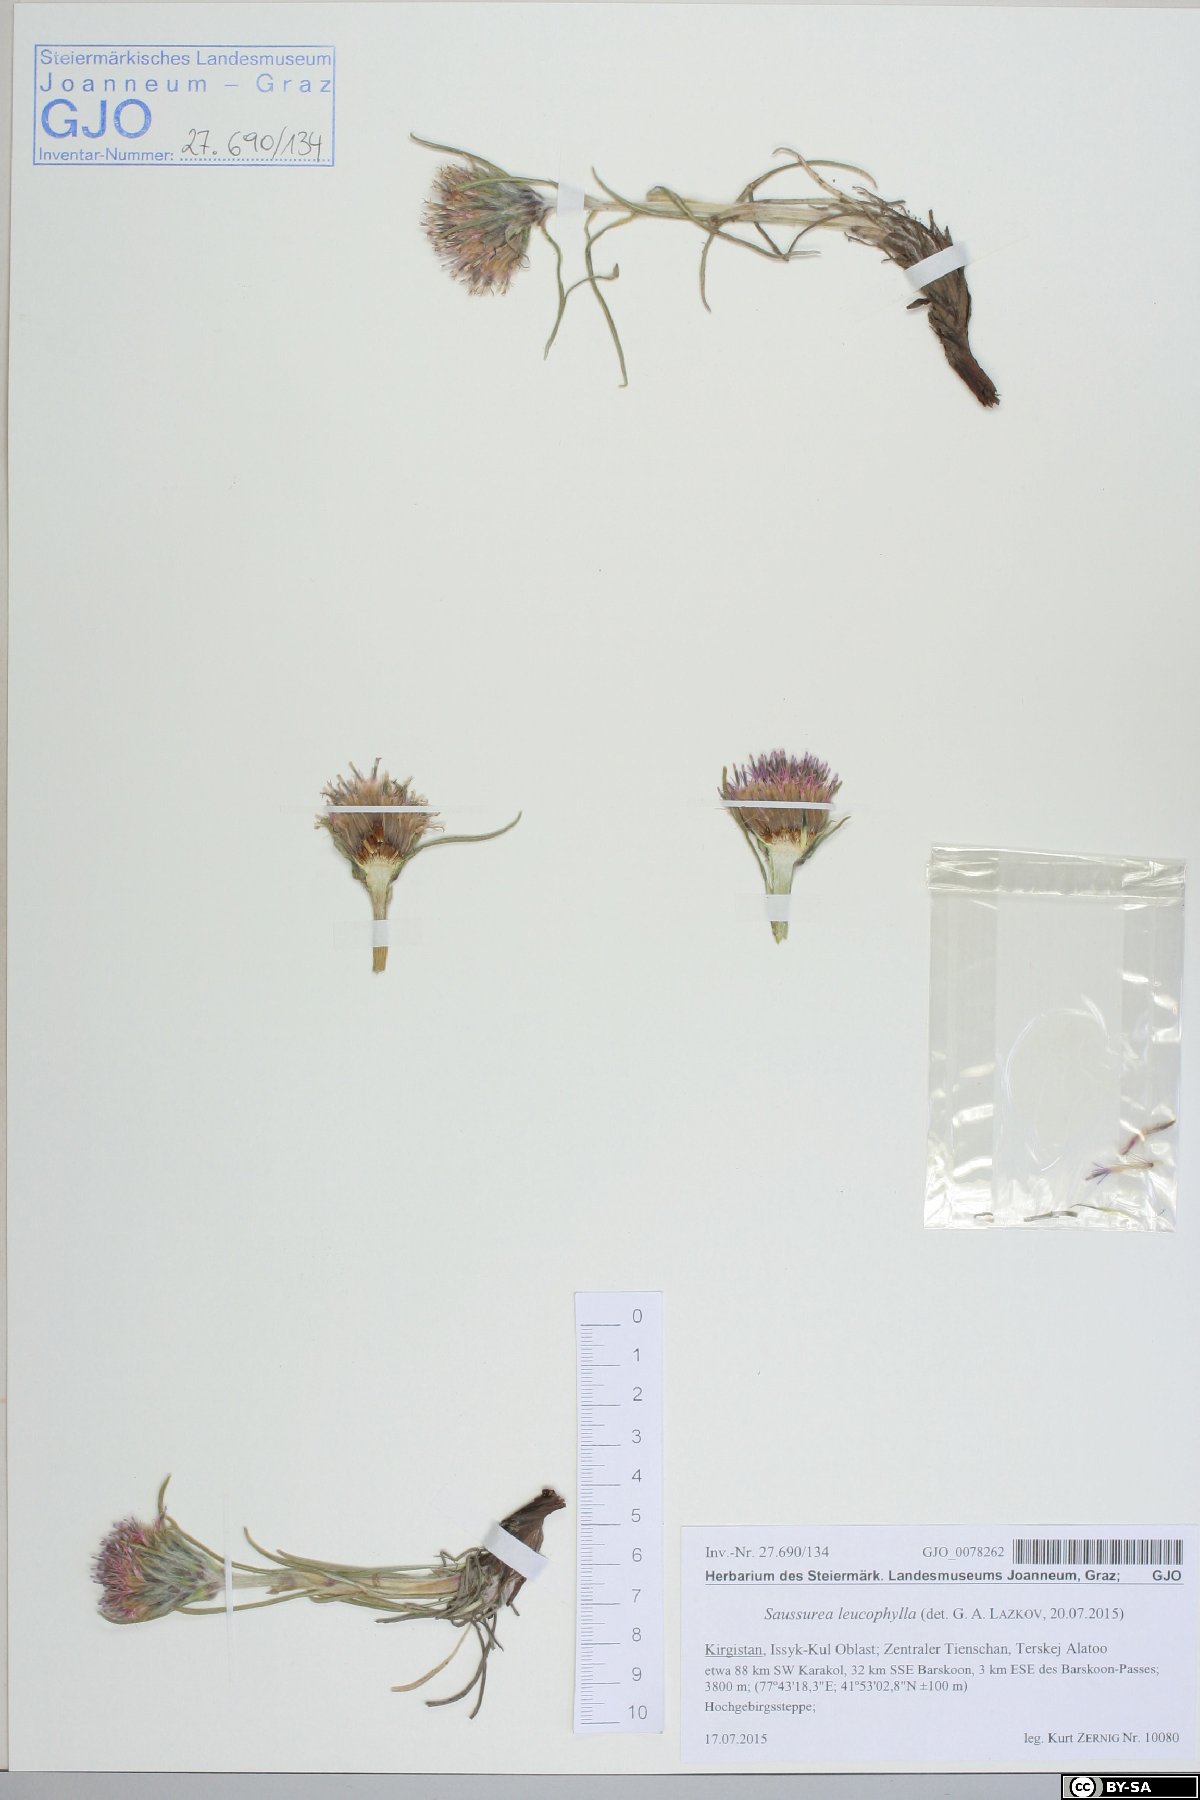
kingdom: Plantae
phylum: Tracheophyta
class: Magnoliopsida
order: Asterales
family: Asteraceae
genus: Saussurea
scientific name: Saussurea leucophylla
